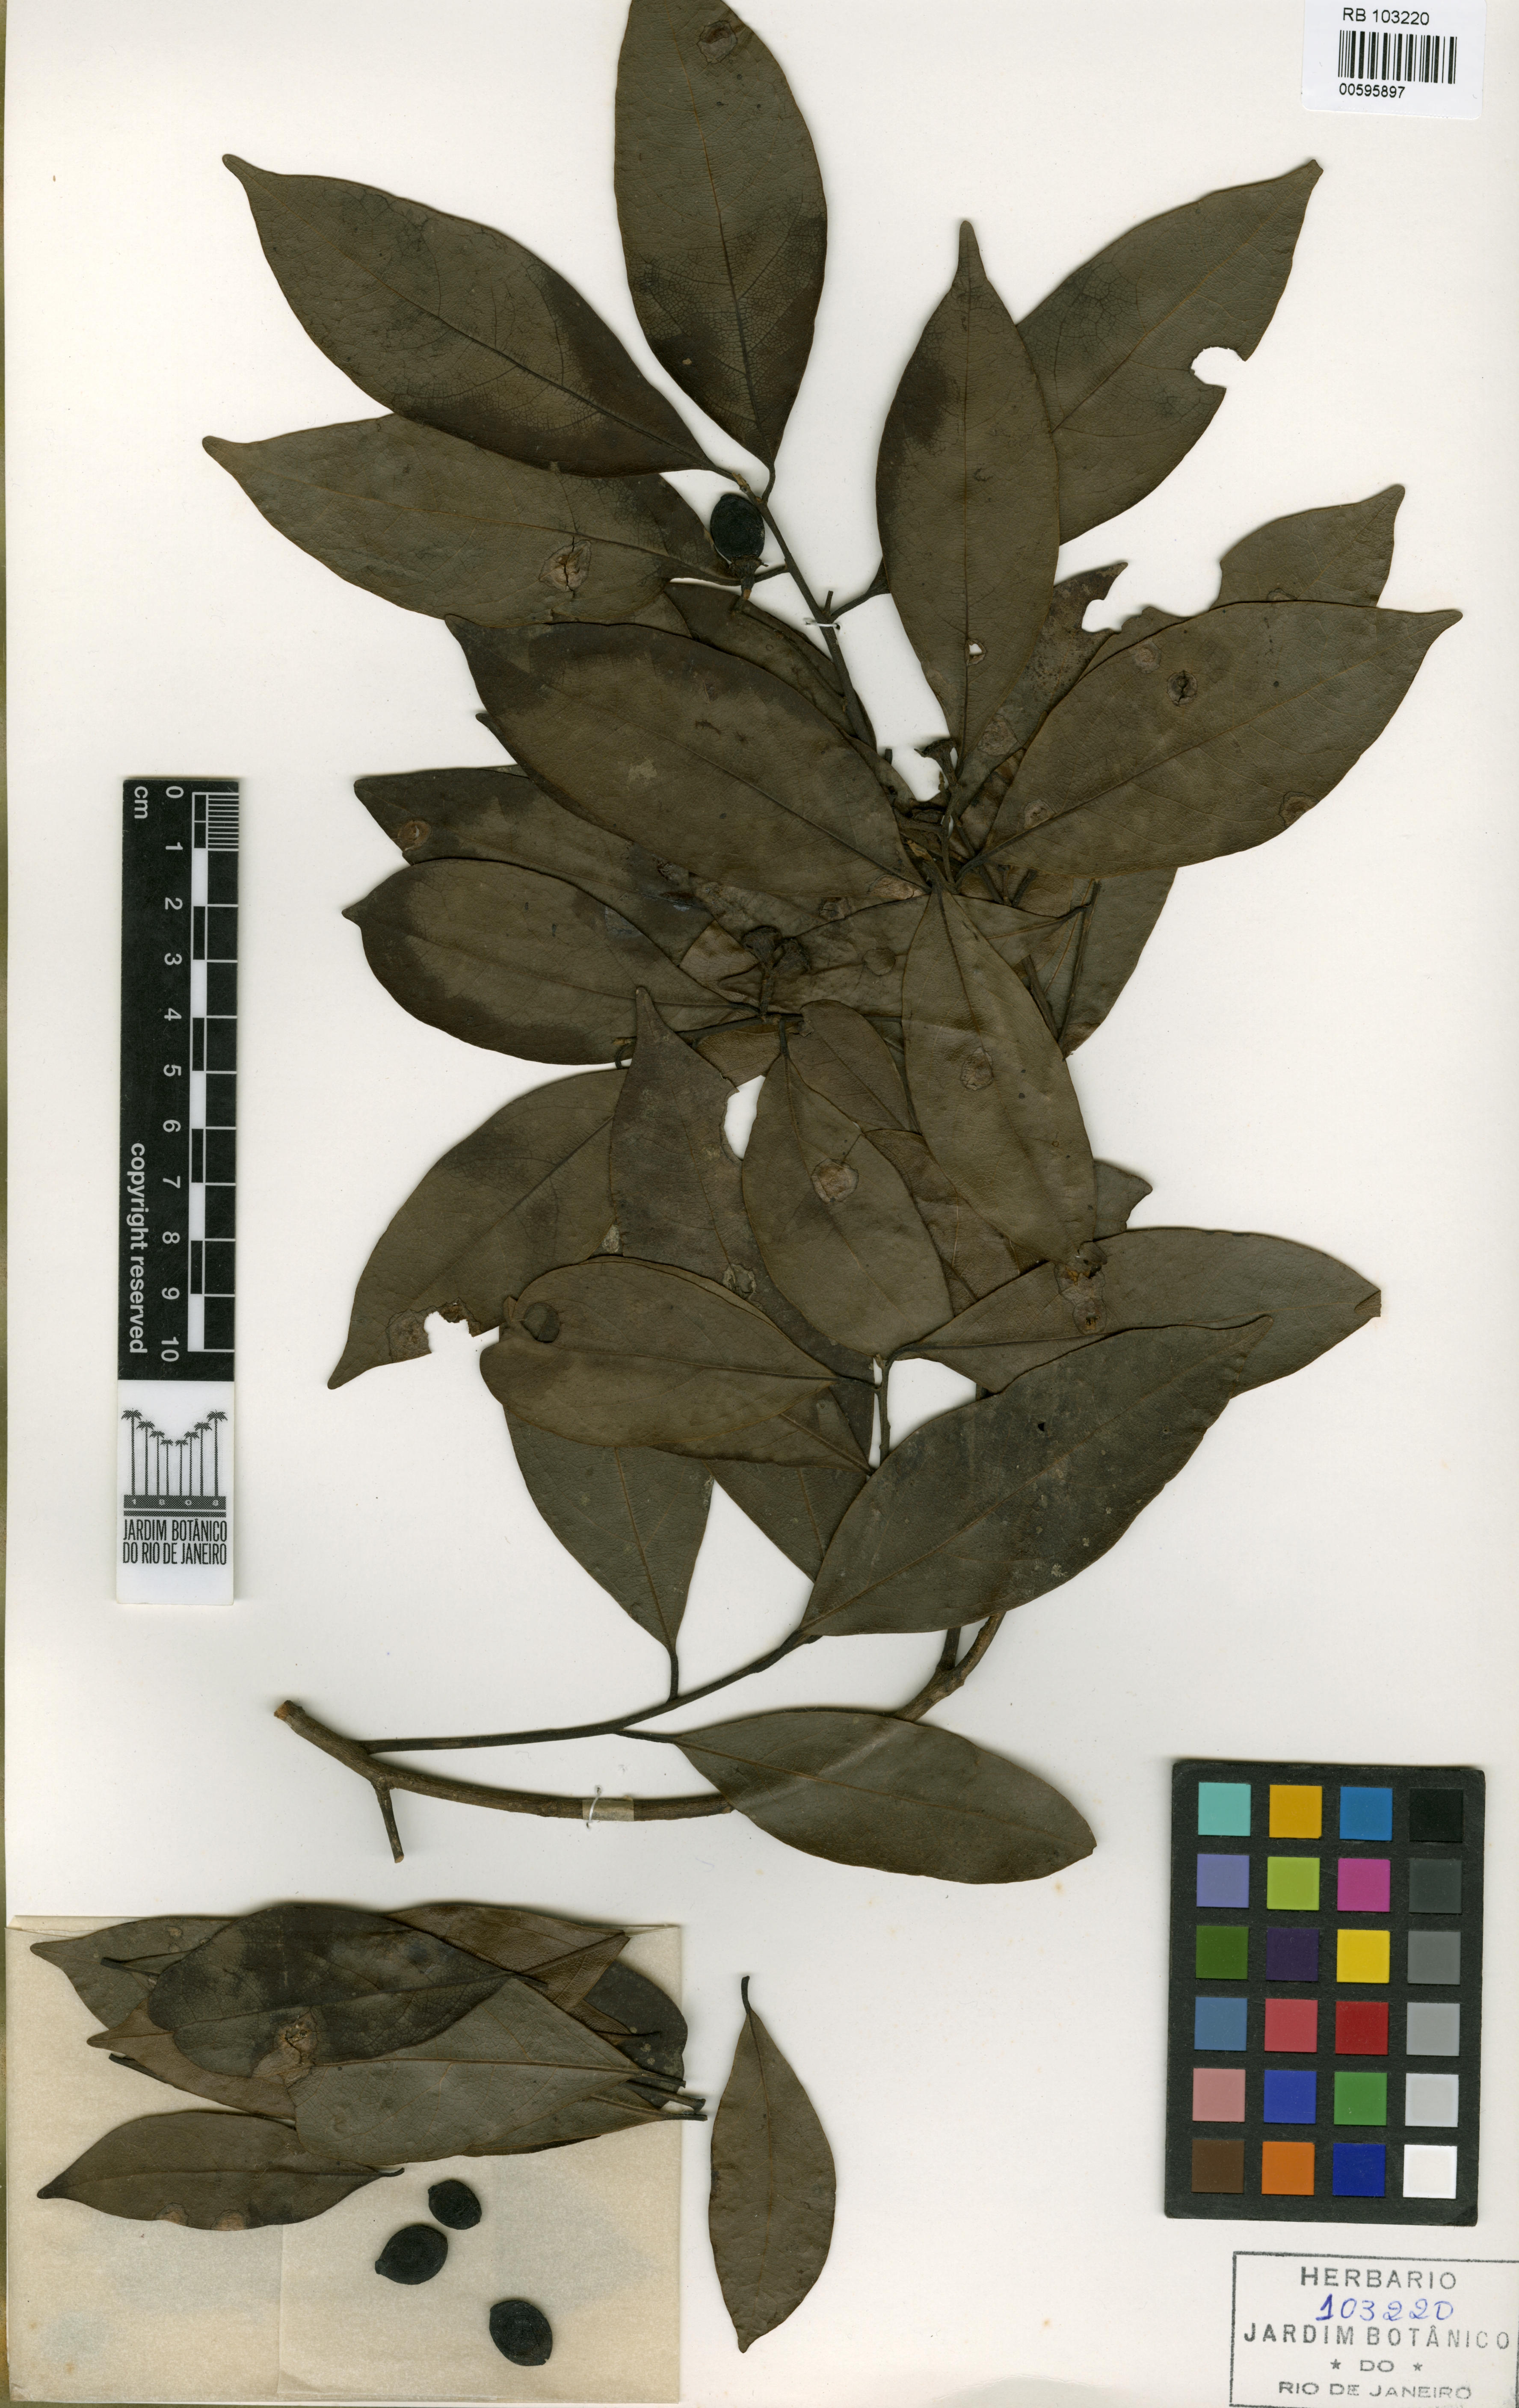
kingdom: Plantae
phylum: Tracheophyta
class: Magnoliopsida
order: Laurales
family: Lauraceae
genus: Ocotea
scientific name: Ocotea silvestris
